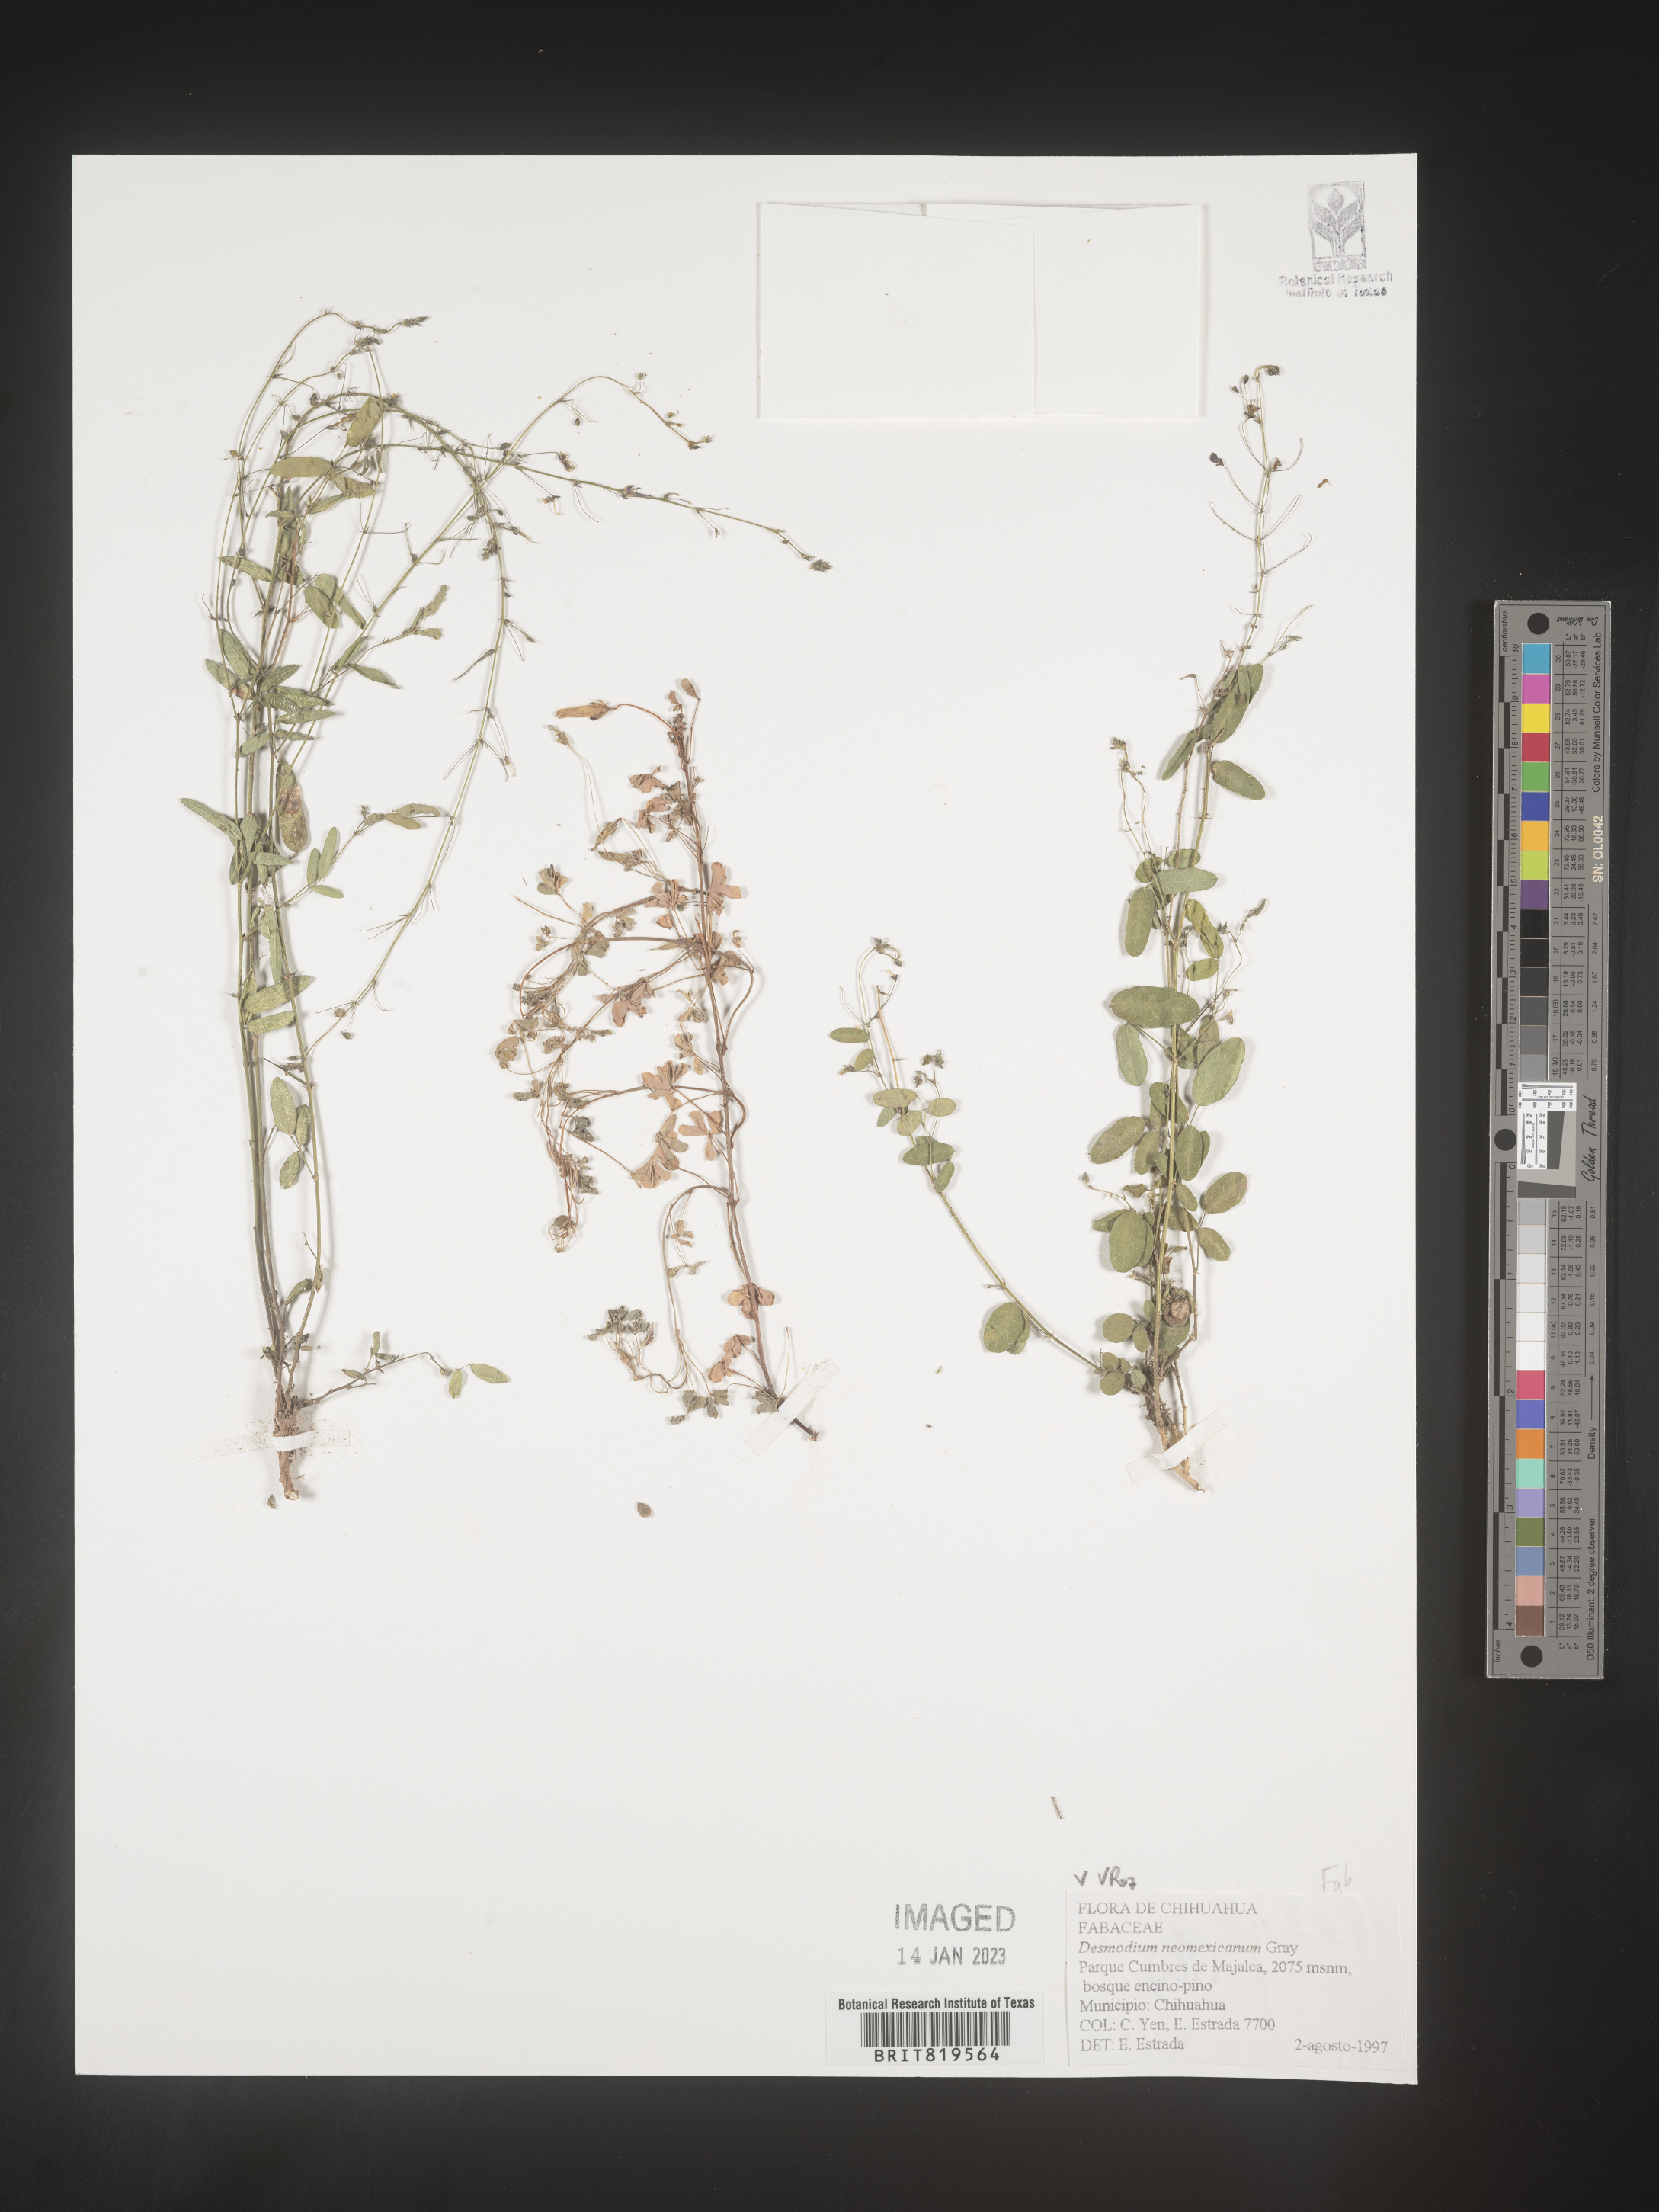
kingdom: Plantae
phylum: Tracheophyta
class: Magnoliopsida
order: Fabales
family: Fabaceae
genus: Desmodium
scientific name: Desmodium
